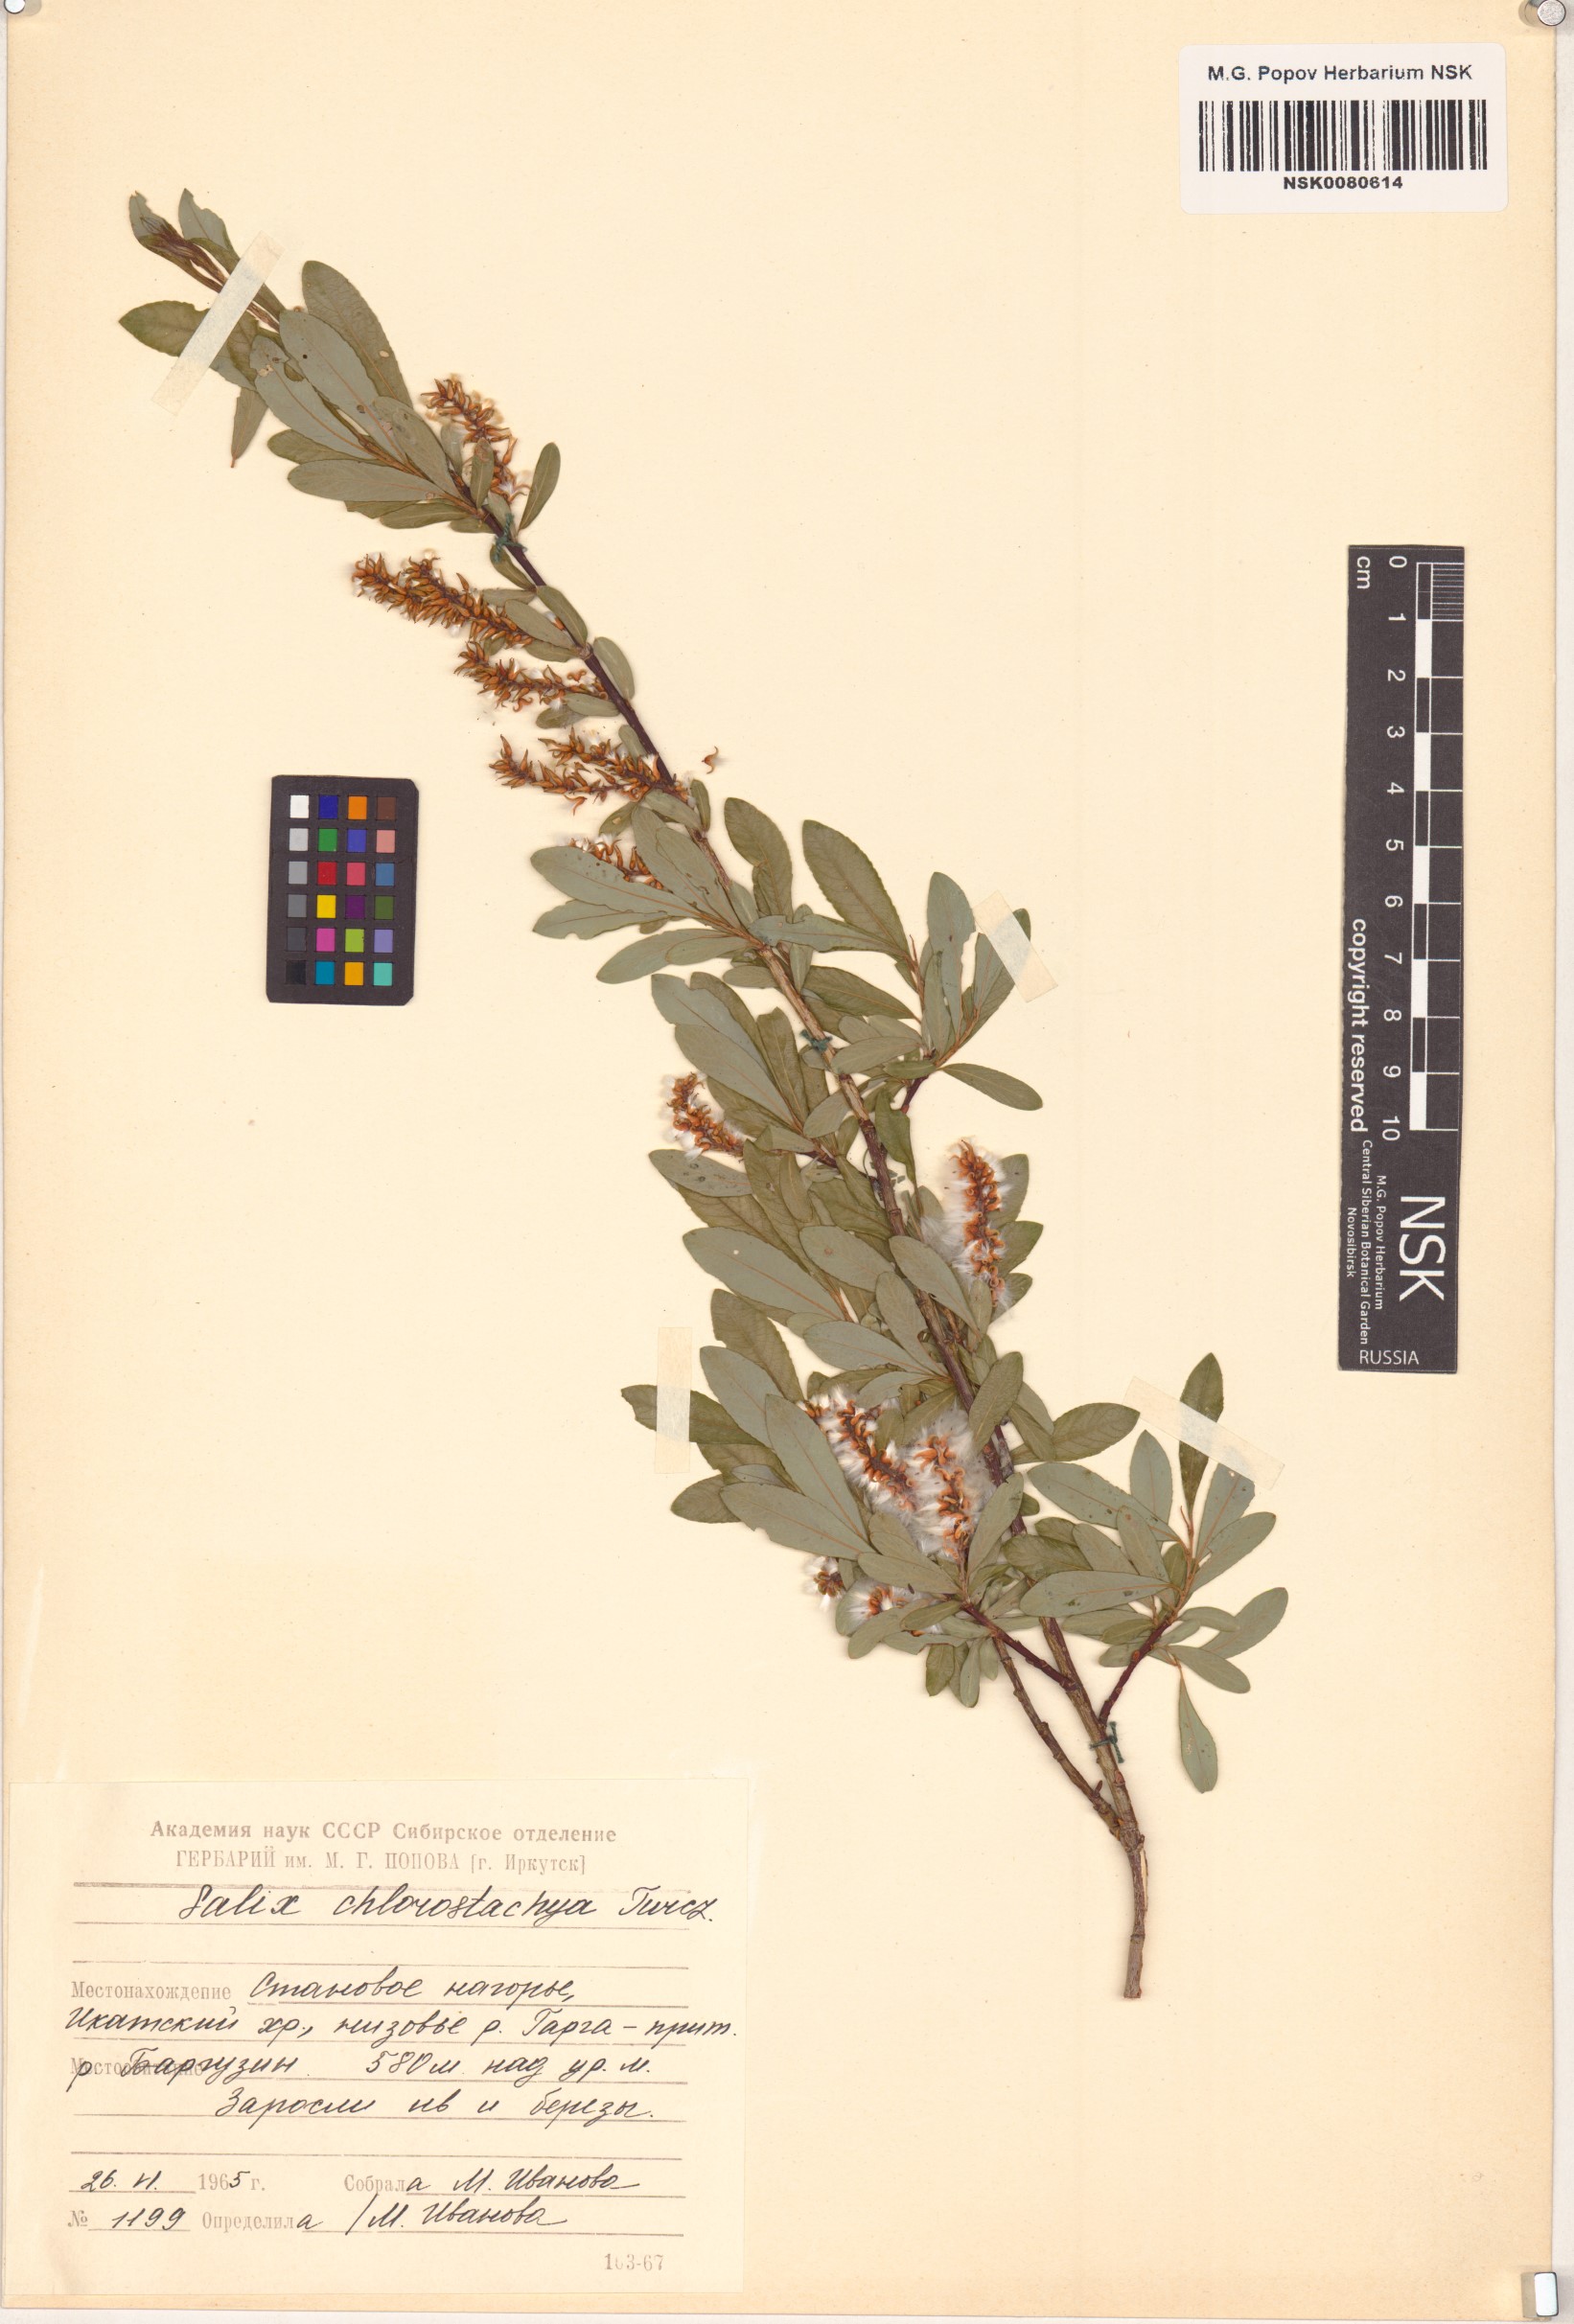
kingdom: Plantae
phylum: Tracheophyta
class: Magnoliopsida
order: Malpighiales
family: Salicaceae
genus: Salix
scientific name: Salix rhamnifolia
